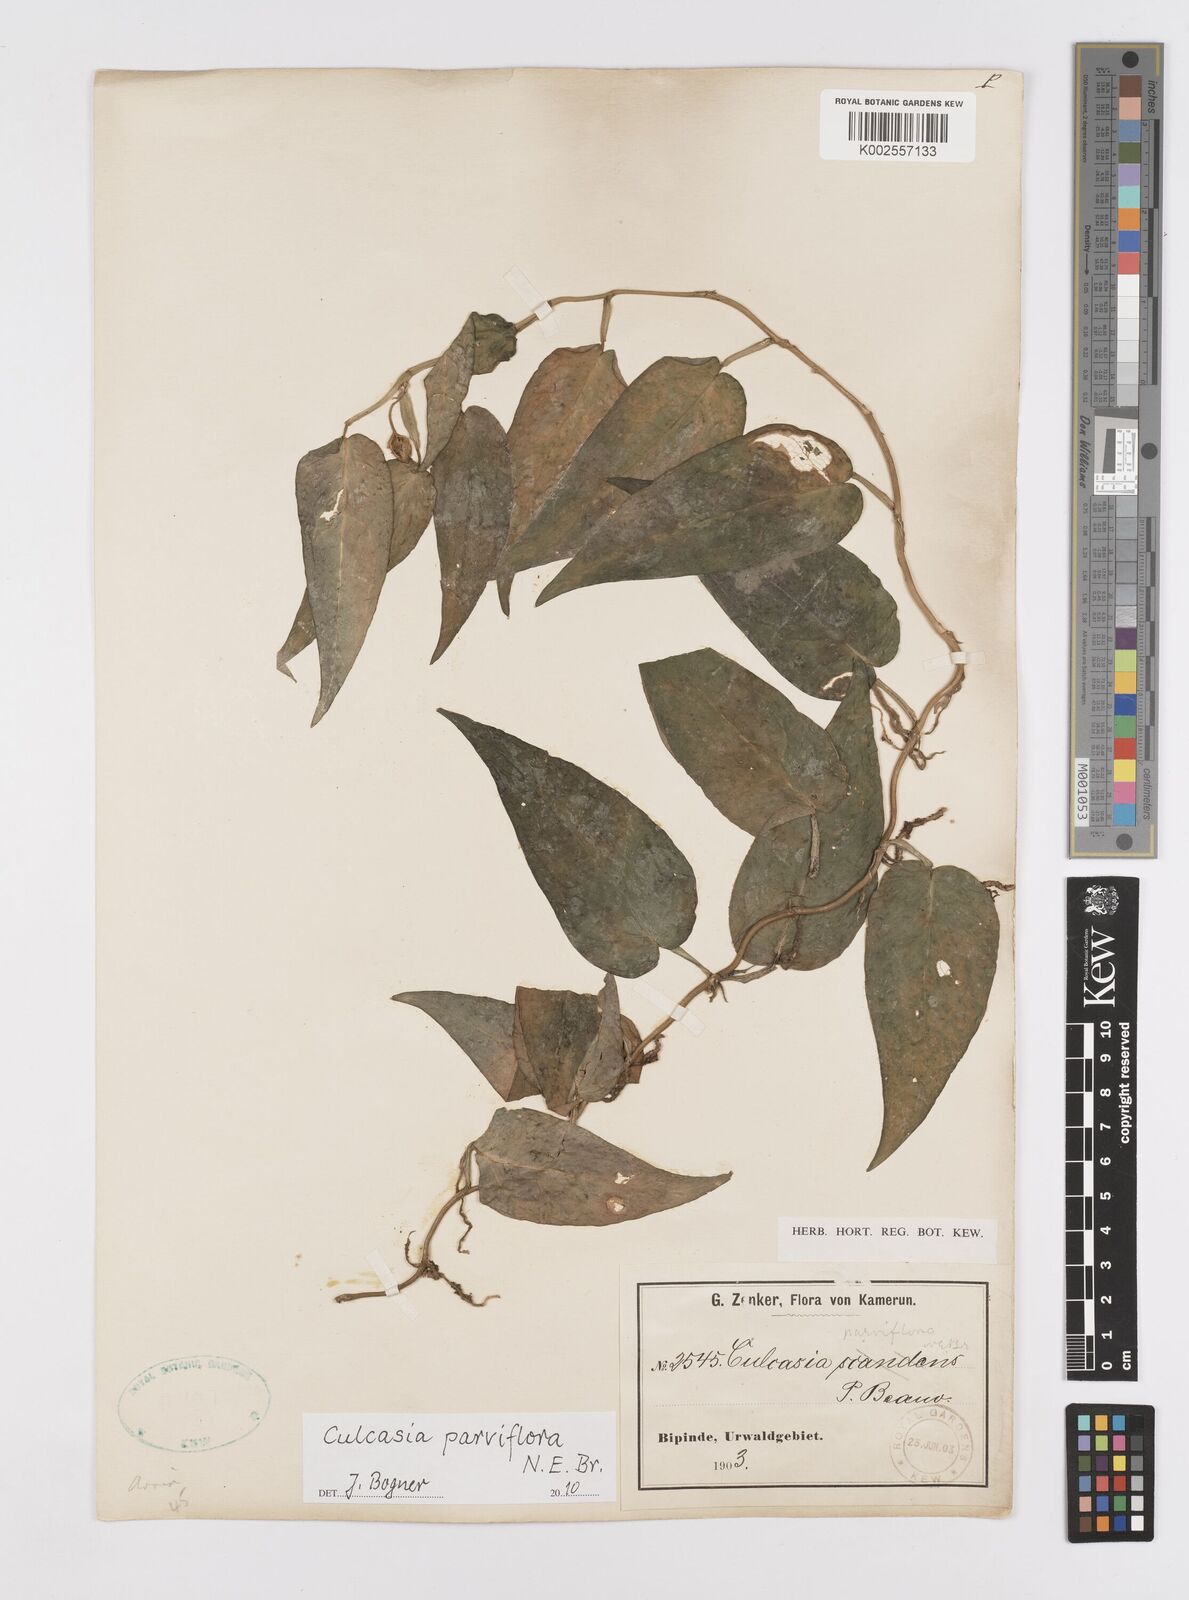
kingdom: Plantae
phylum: Tracheophyta
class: Liliopsida
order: Alismatales
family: Araceae
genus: Culcasia
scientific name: Culcasia parviflora
